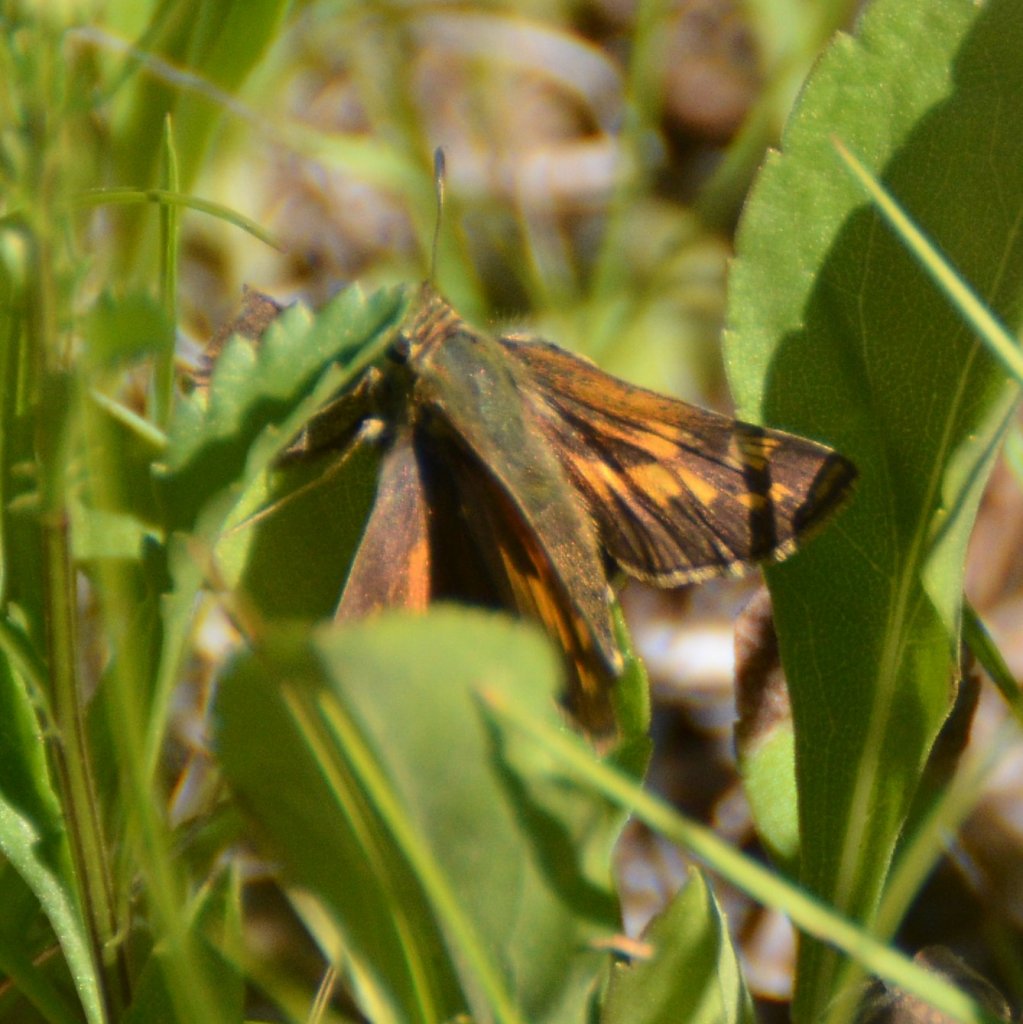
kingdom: Animalia
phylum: Arthropoda
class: Insecta
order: Lepidoptera
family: Hesperiidae
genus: Hesperia
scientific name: Hesperia sassacus
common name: Sassacus Skipper
